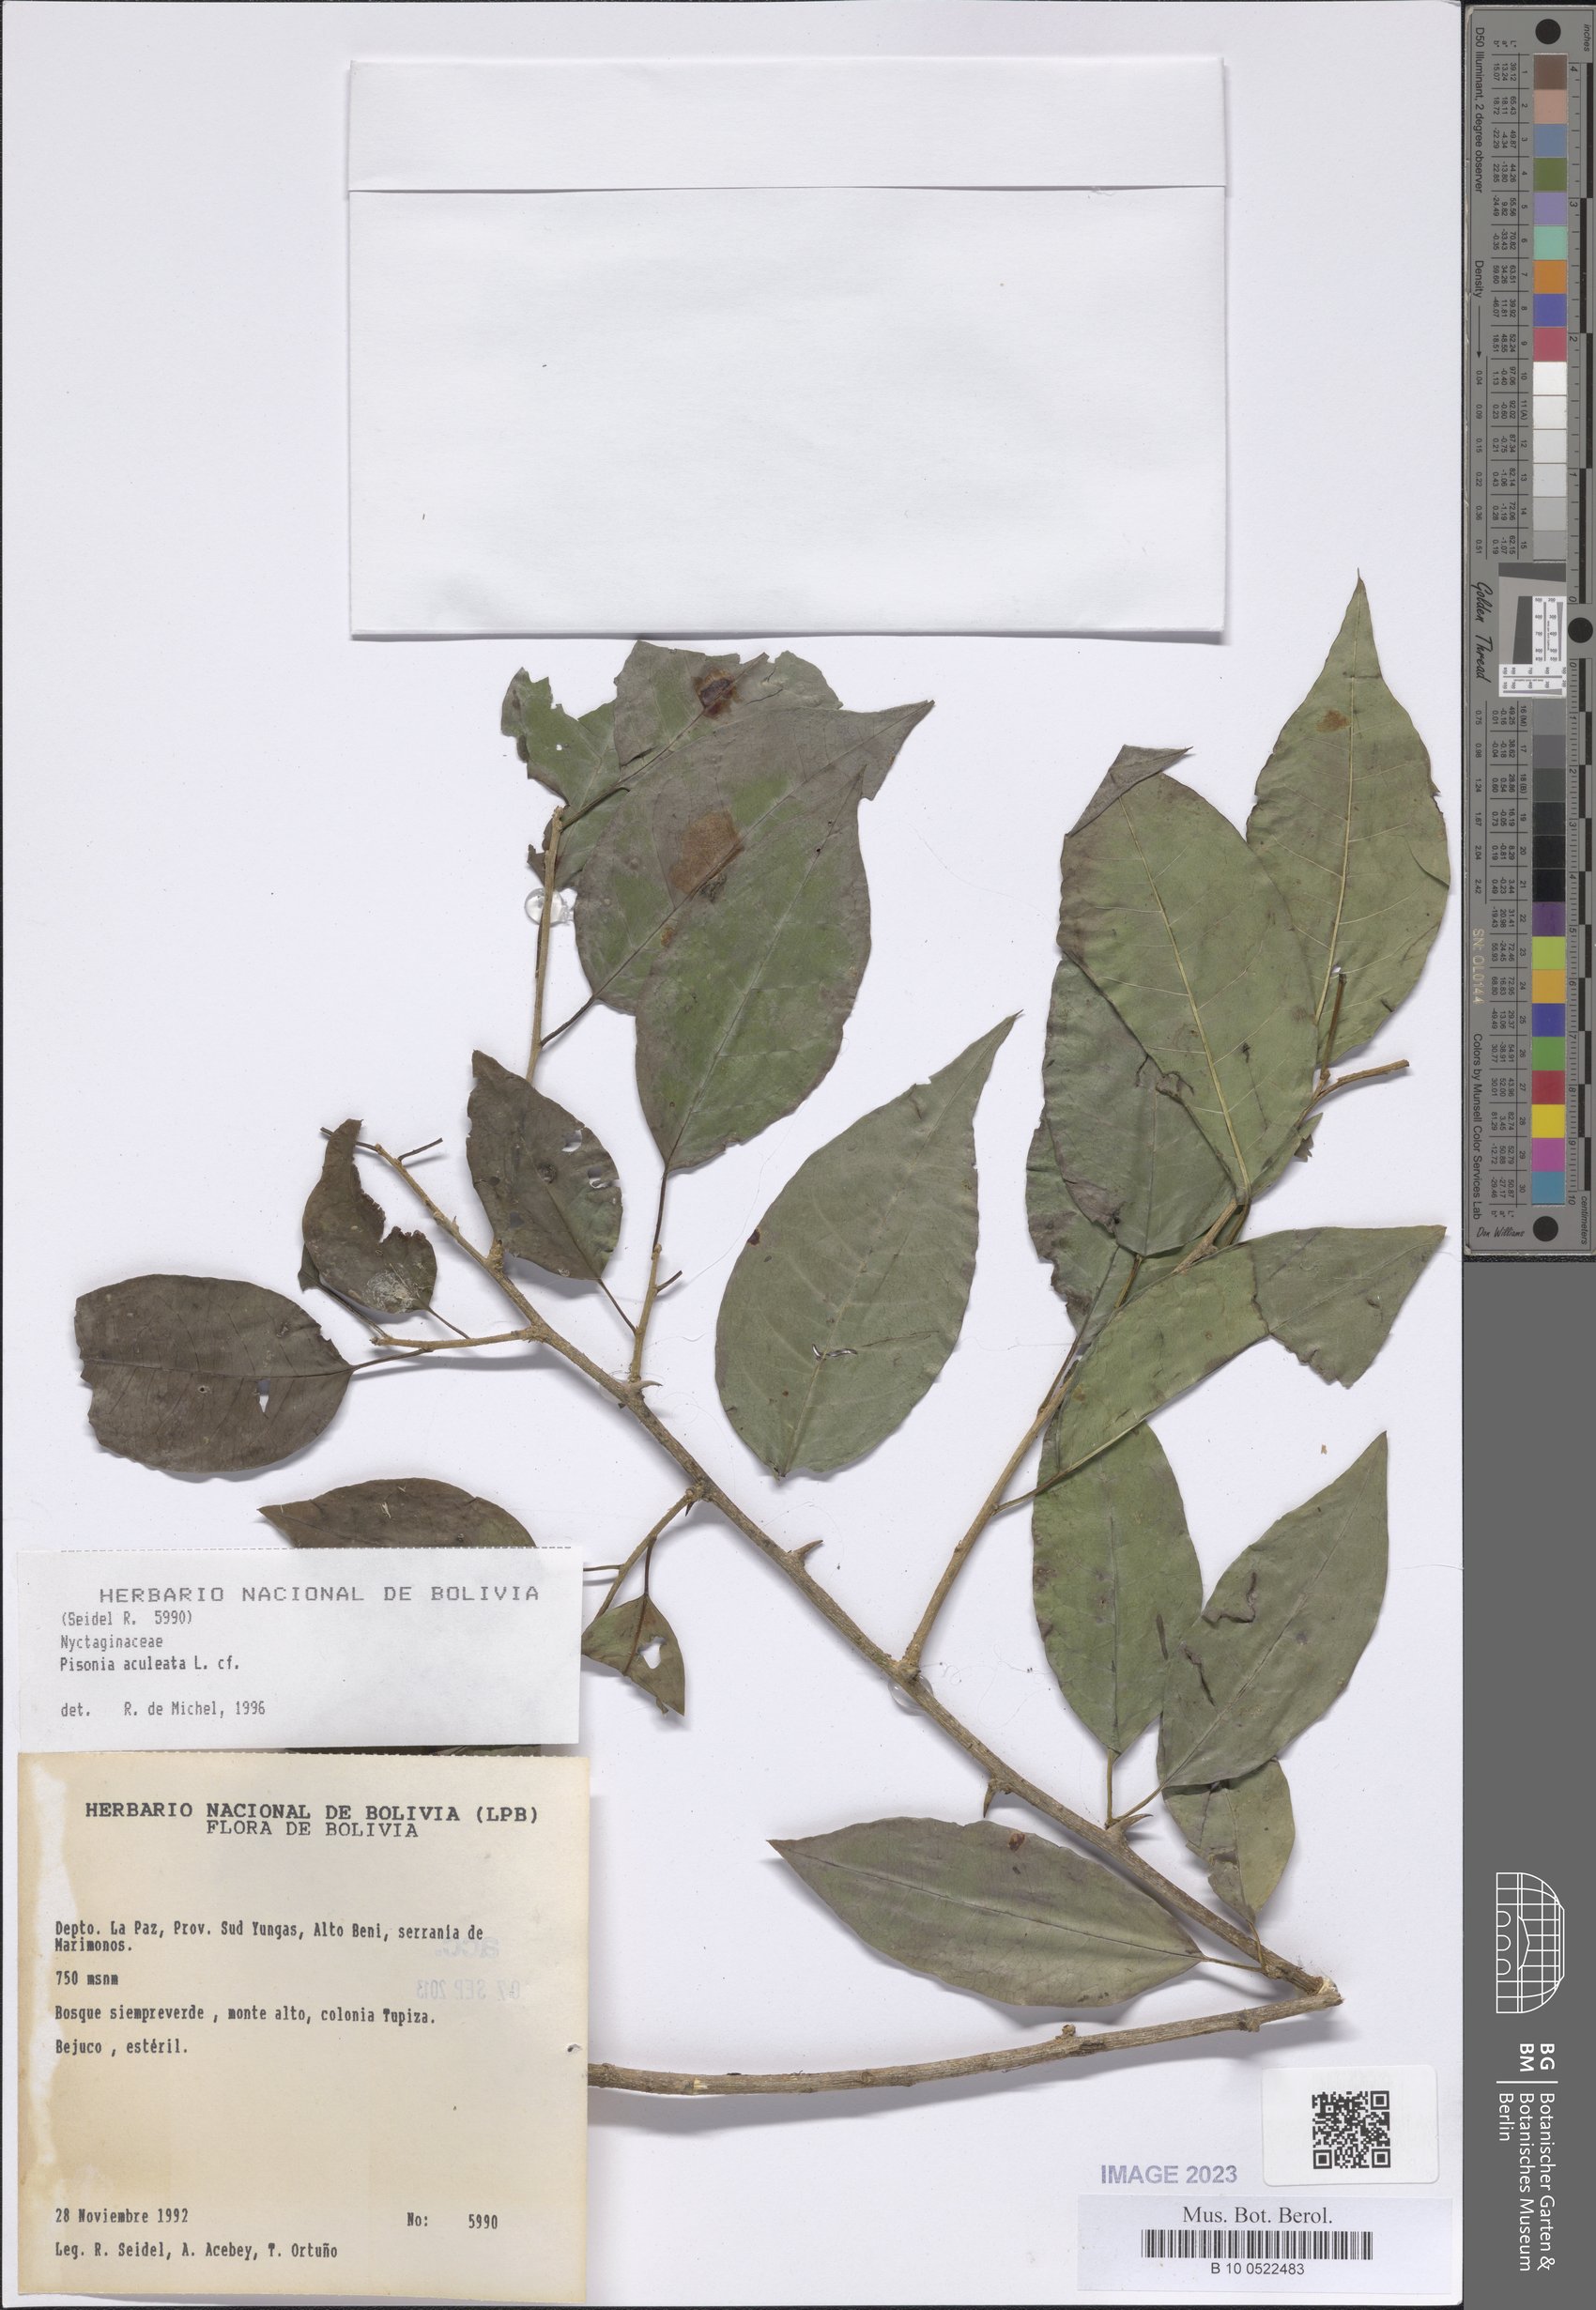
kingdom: Plantae
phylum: Tracheophyta
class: Magnoliopsida
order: Caryophyllales
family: Nyctaginaceae
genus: Pisonia
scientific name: Pisonia aculeata
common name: Cockspur vine
